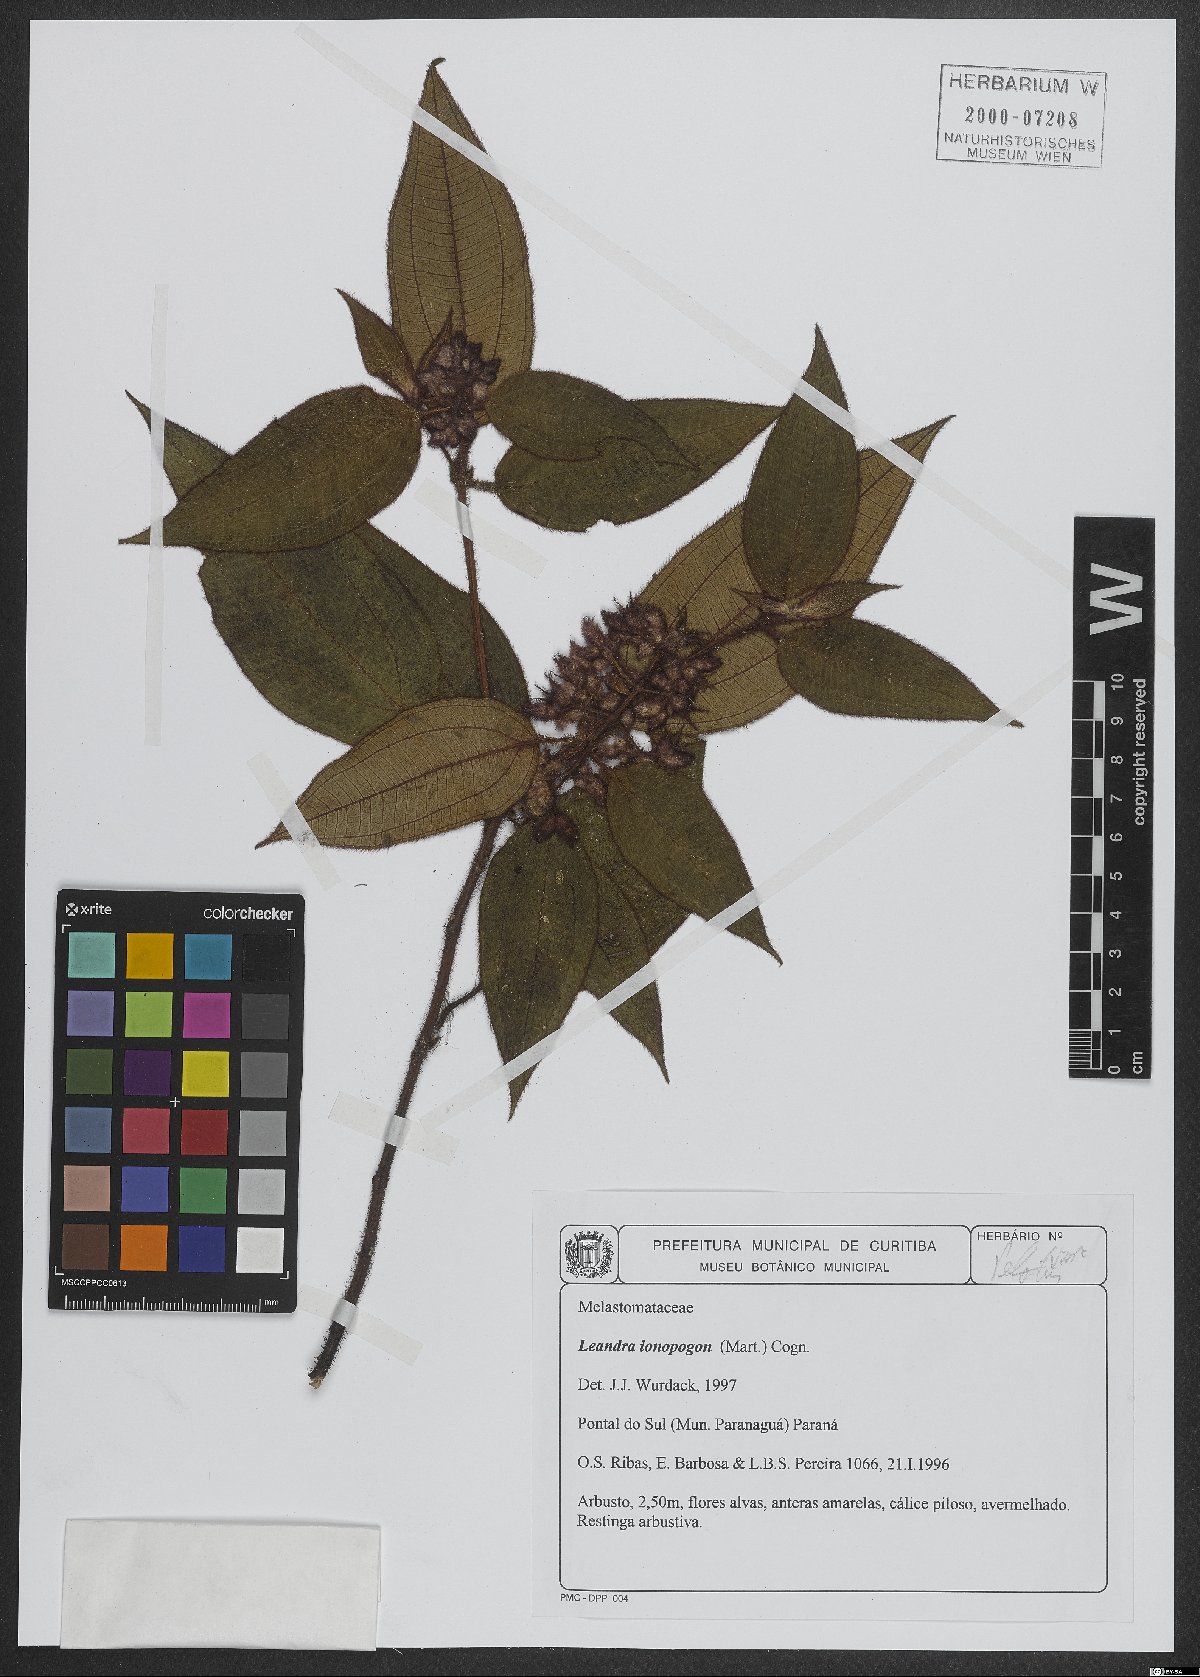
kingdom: Plantae
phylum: Tracheophyta
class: Magnoliopsida
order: Myrtales
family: Melastomataceae
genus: Miconia
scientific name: Miconia ionopogon
